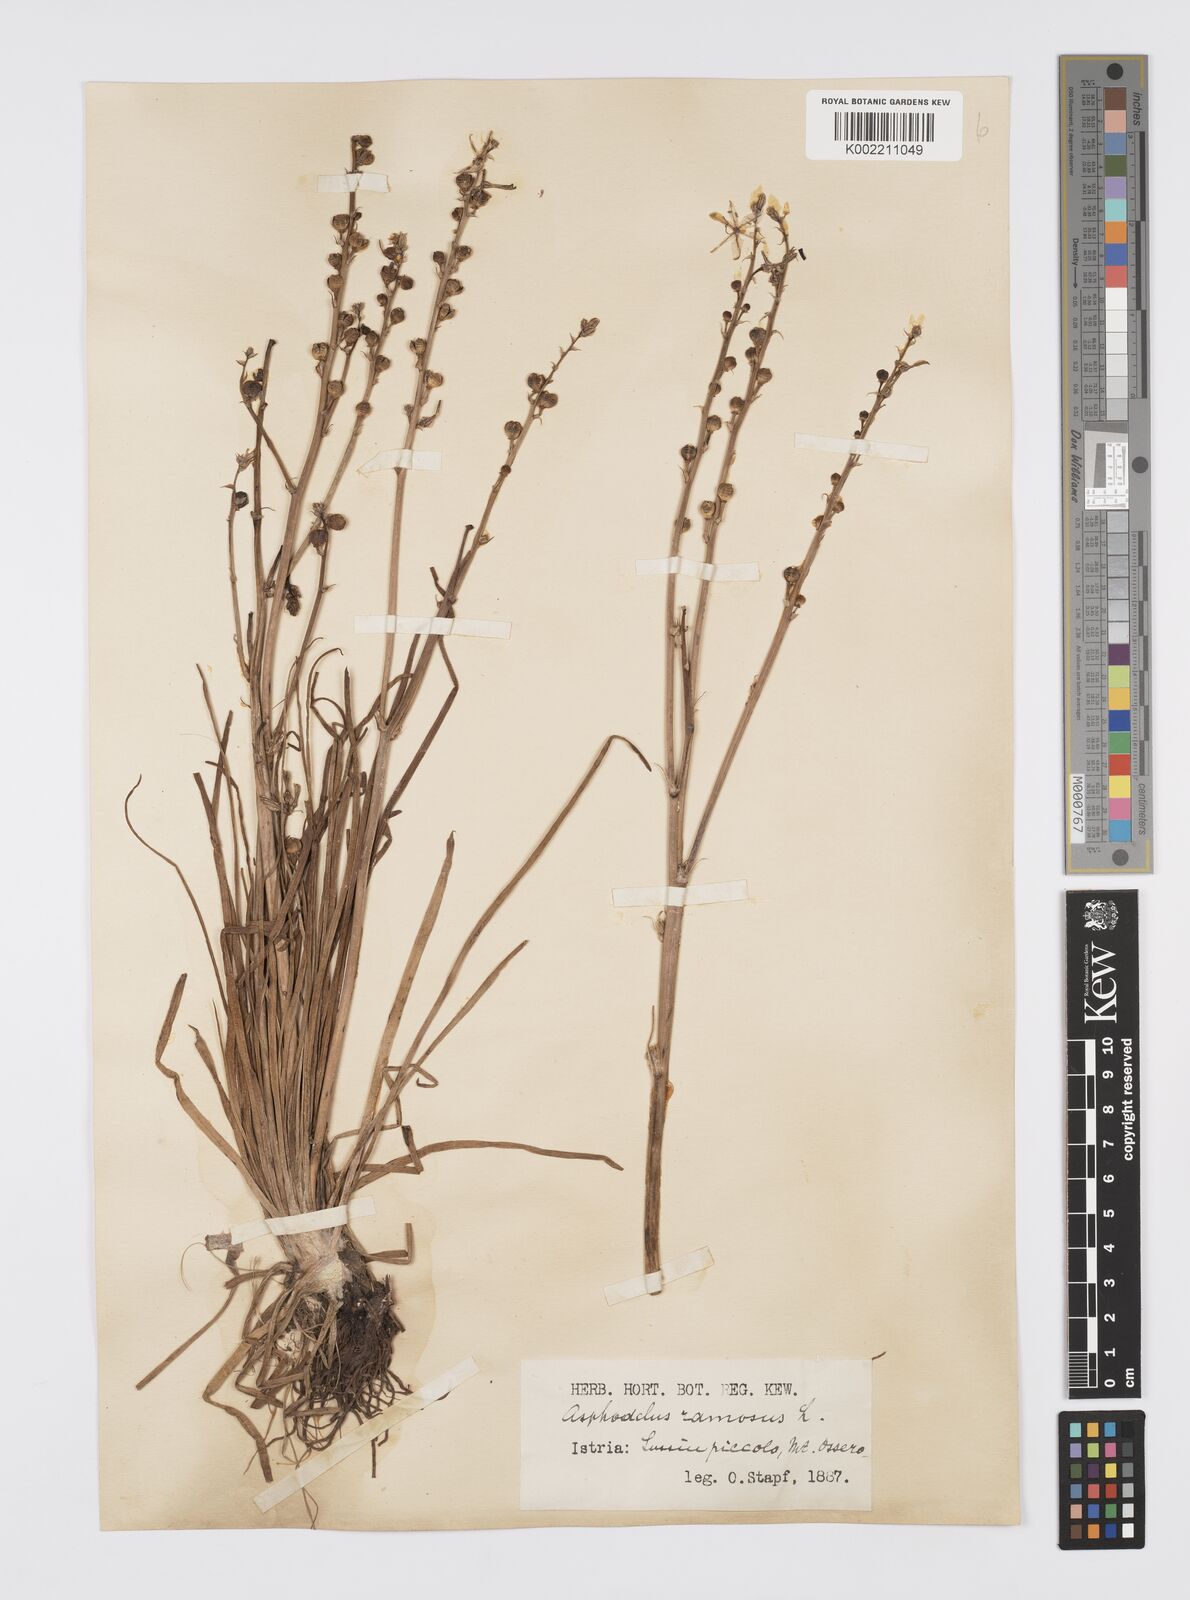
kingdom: Plantae
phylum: Tracheophyta
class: Liliopsida
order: Asparagales
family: Asphodelaceae
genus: Asphodelus
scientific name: Asphodelus fistulosus
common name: Onionweed
